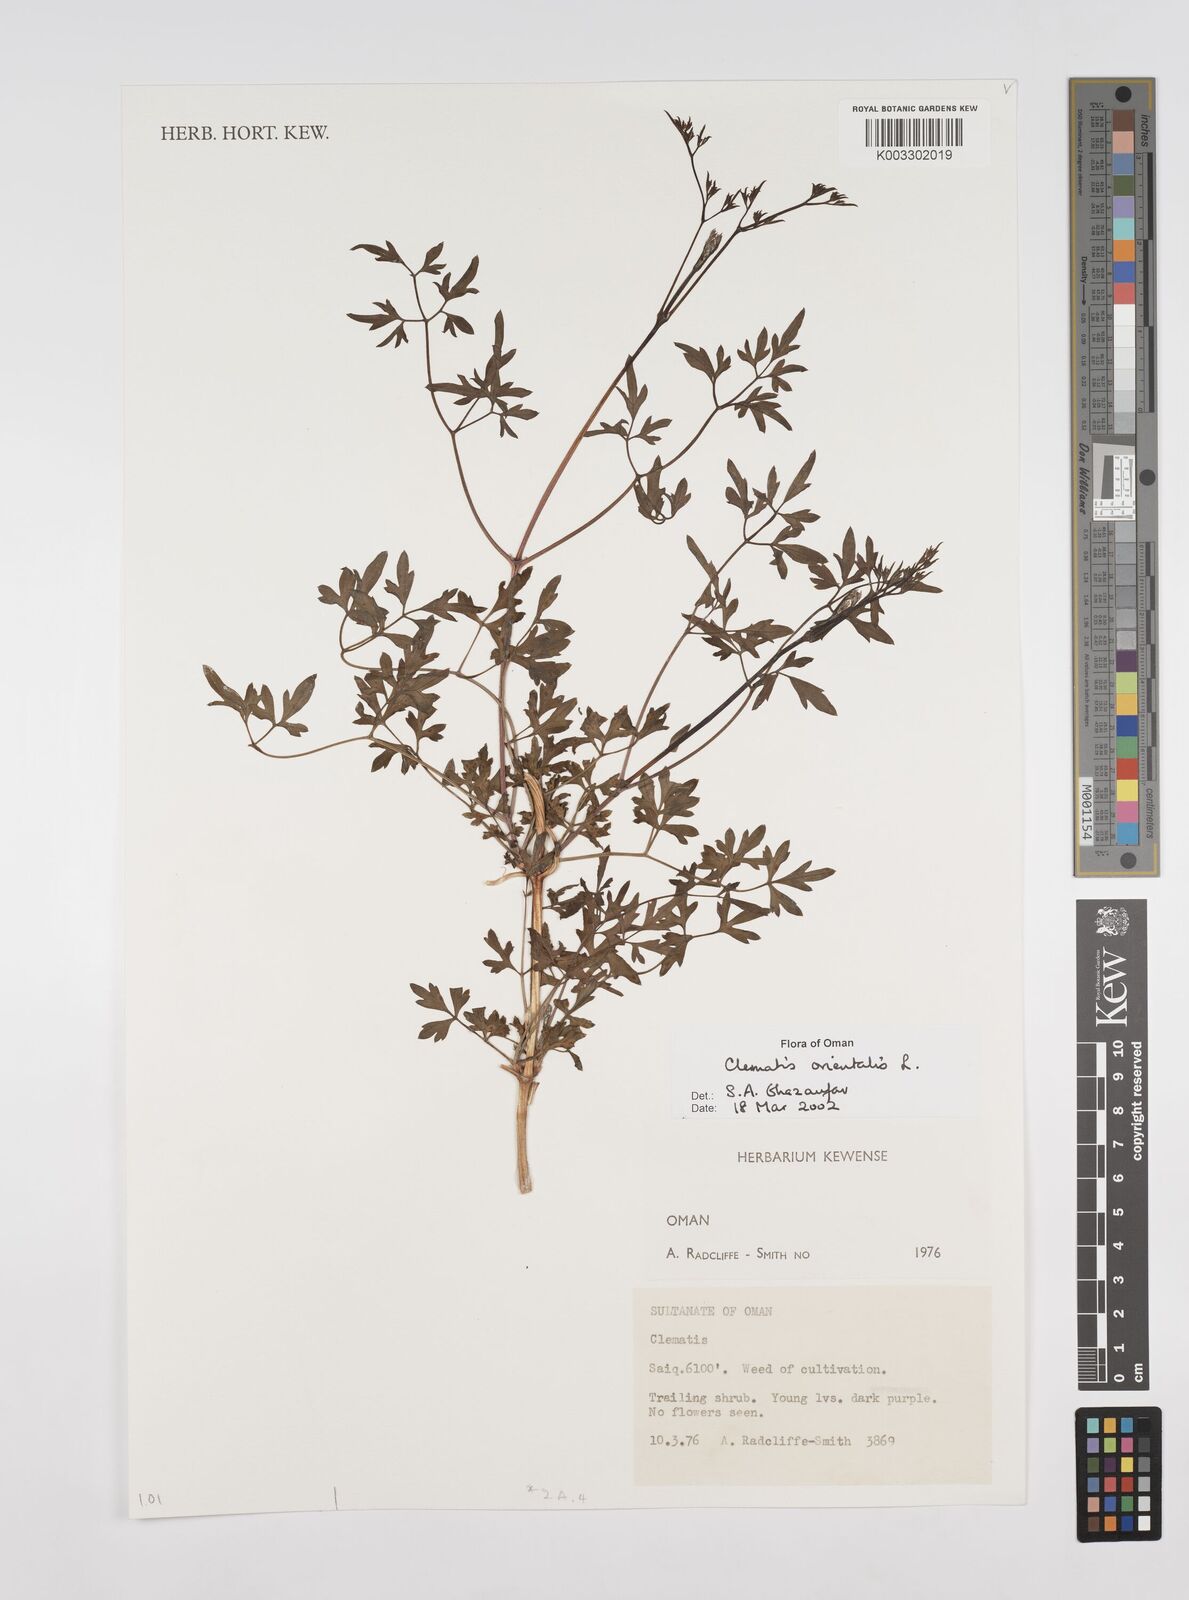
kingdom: Plantae
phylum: Tracheophyta
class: Magnoliopsida
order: Ranunculales
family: Ranunculaceae
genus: Clematis
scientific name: Clematis orientalis
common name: Oriental virgin's-bower
